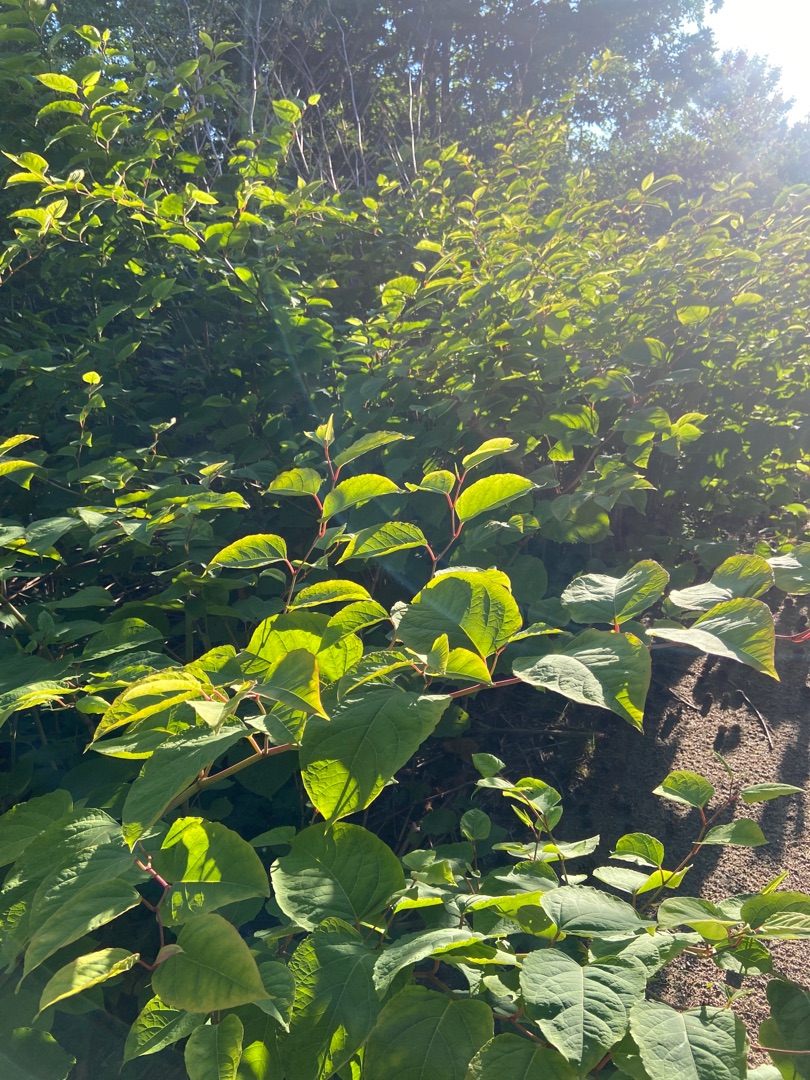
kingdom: Plantae
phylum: Tracheophyta
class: Magnoliopsida
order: Caryophyllales
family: Polygonaceae
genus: Reynoutria
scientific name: Reynoutria japonica
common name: Japan-pileurt
